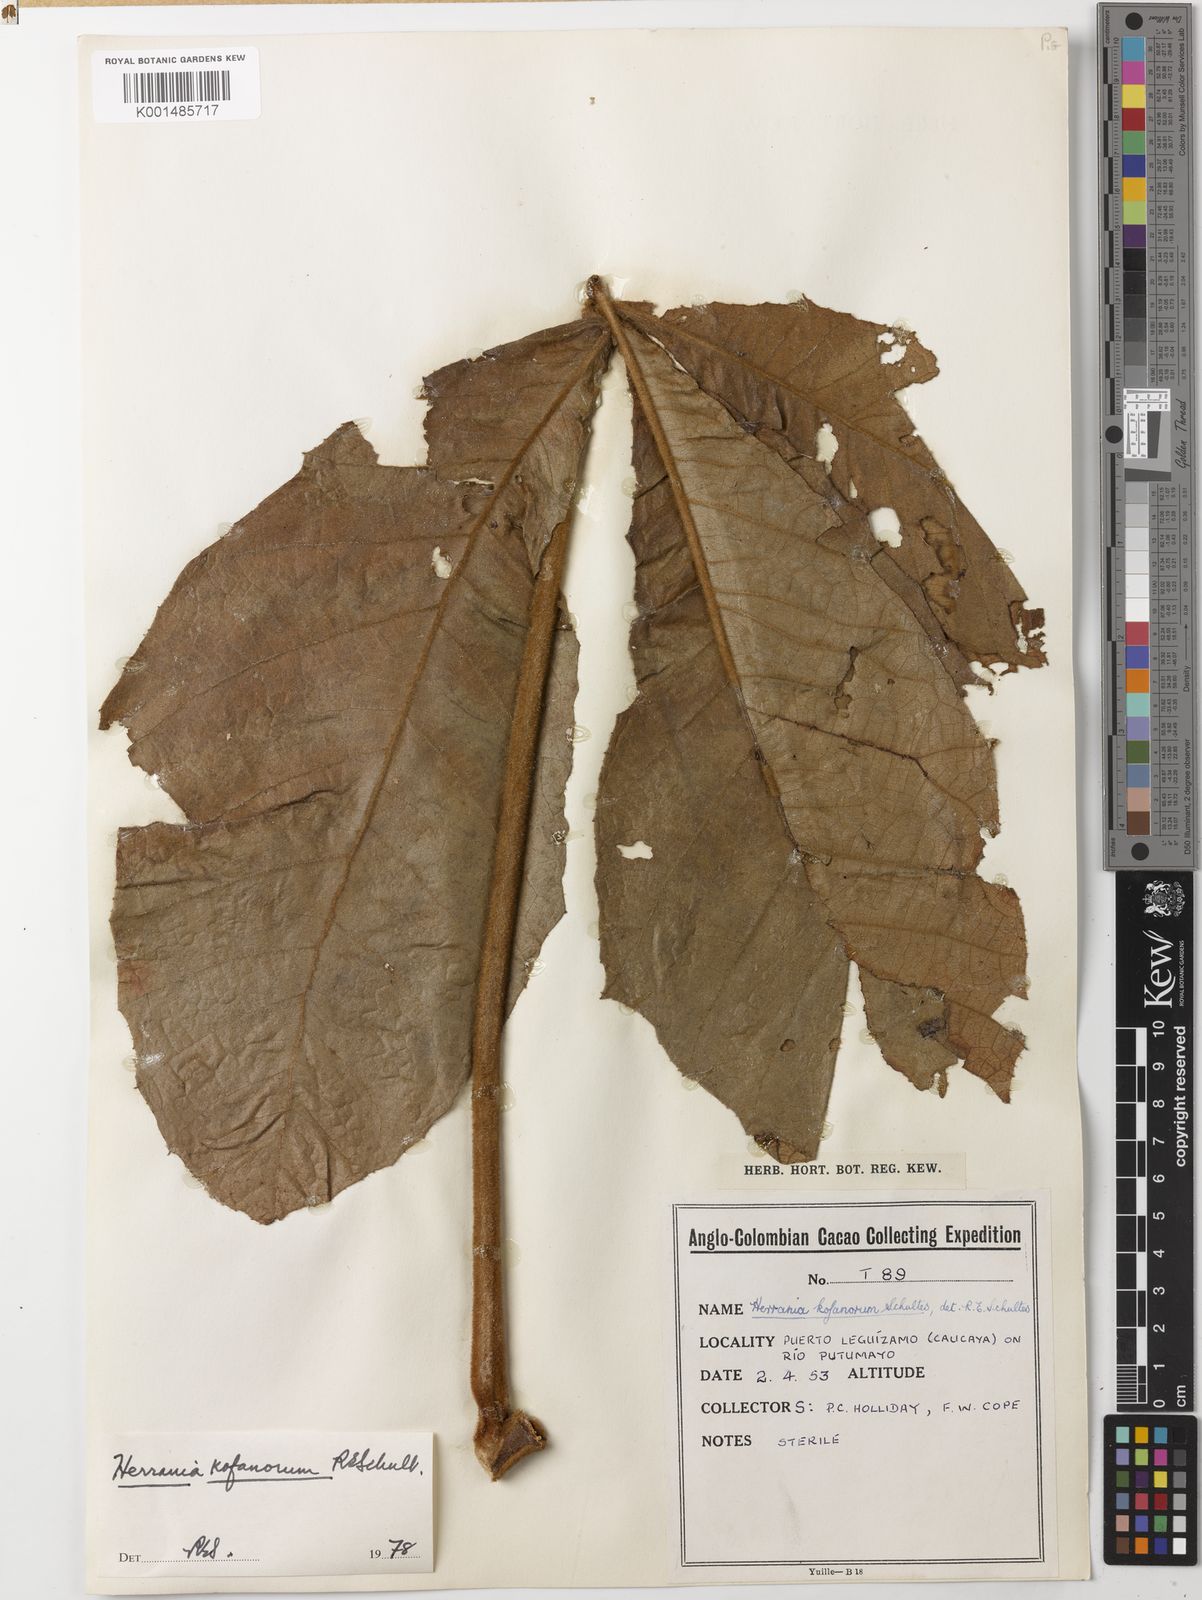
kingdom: Plantae
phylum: Tracheophyta
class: Magnoliopsida
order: Malvales
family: Malvaceae
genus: Herrania
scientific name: Herrania kofanorum
